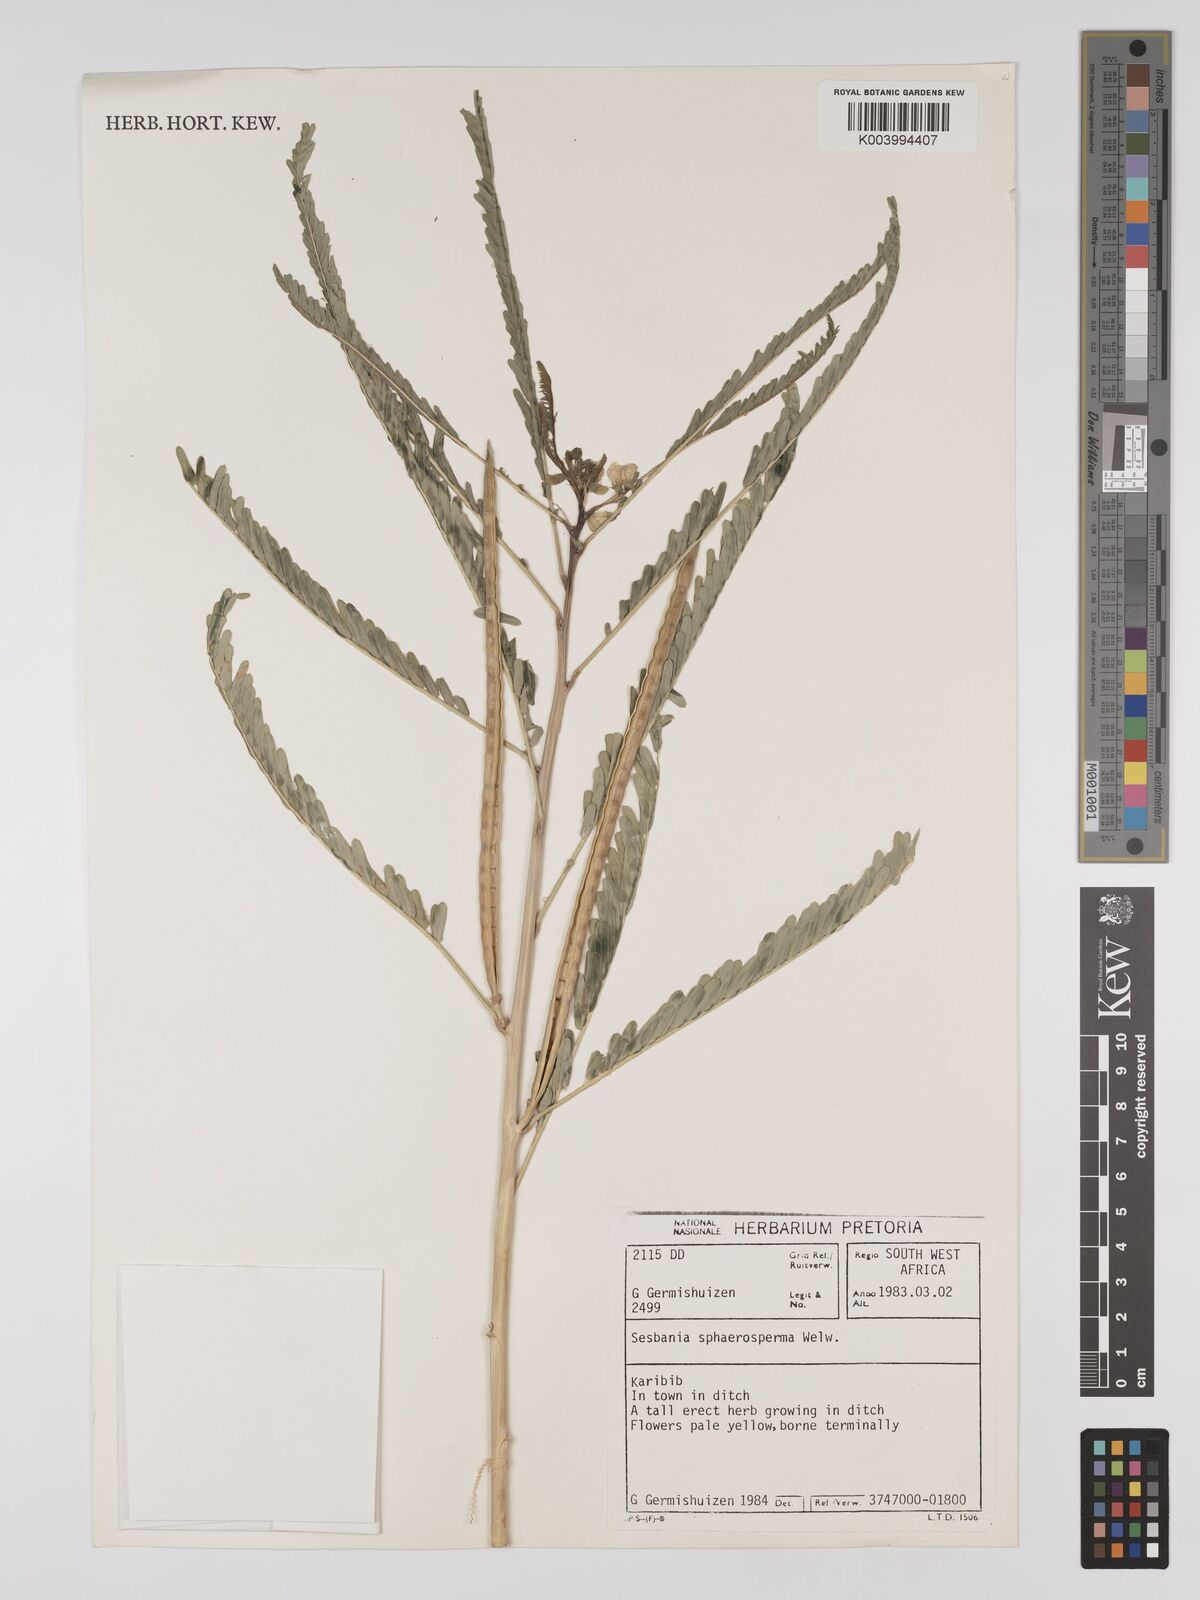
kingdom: Plantae
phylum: Tracheophyta
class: Magnoliopsida
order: Fabales
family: Fabaceae
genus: Sesbania
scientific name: Sesbania sphaerocarpa
